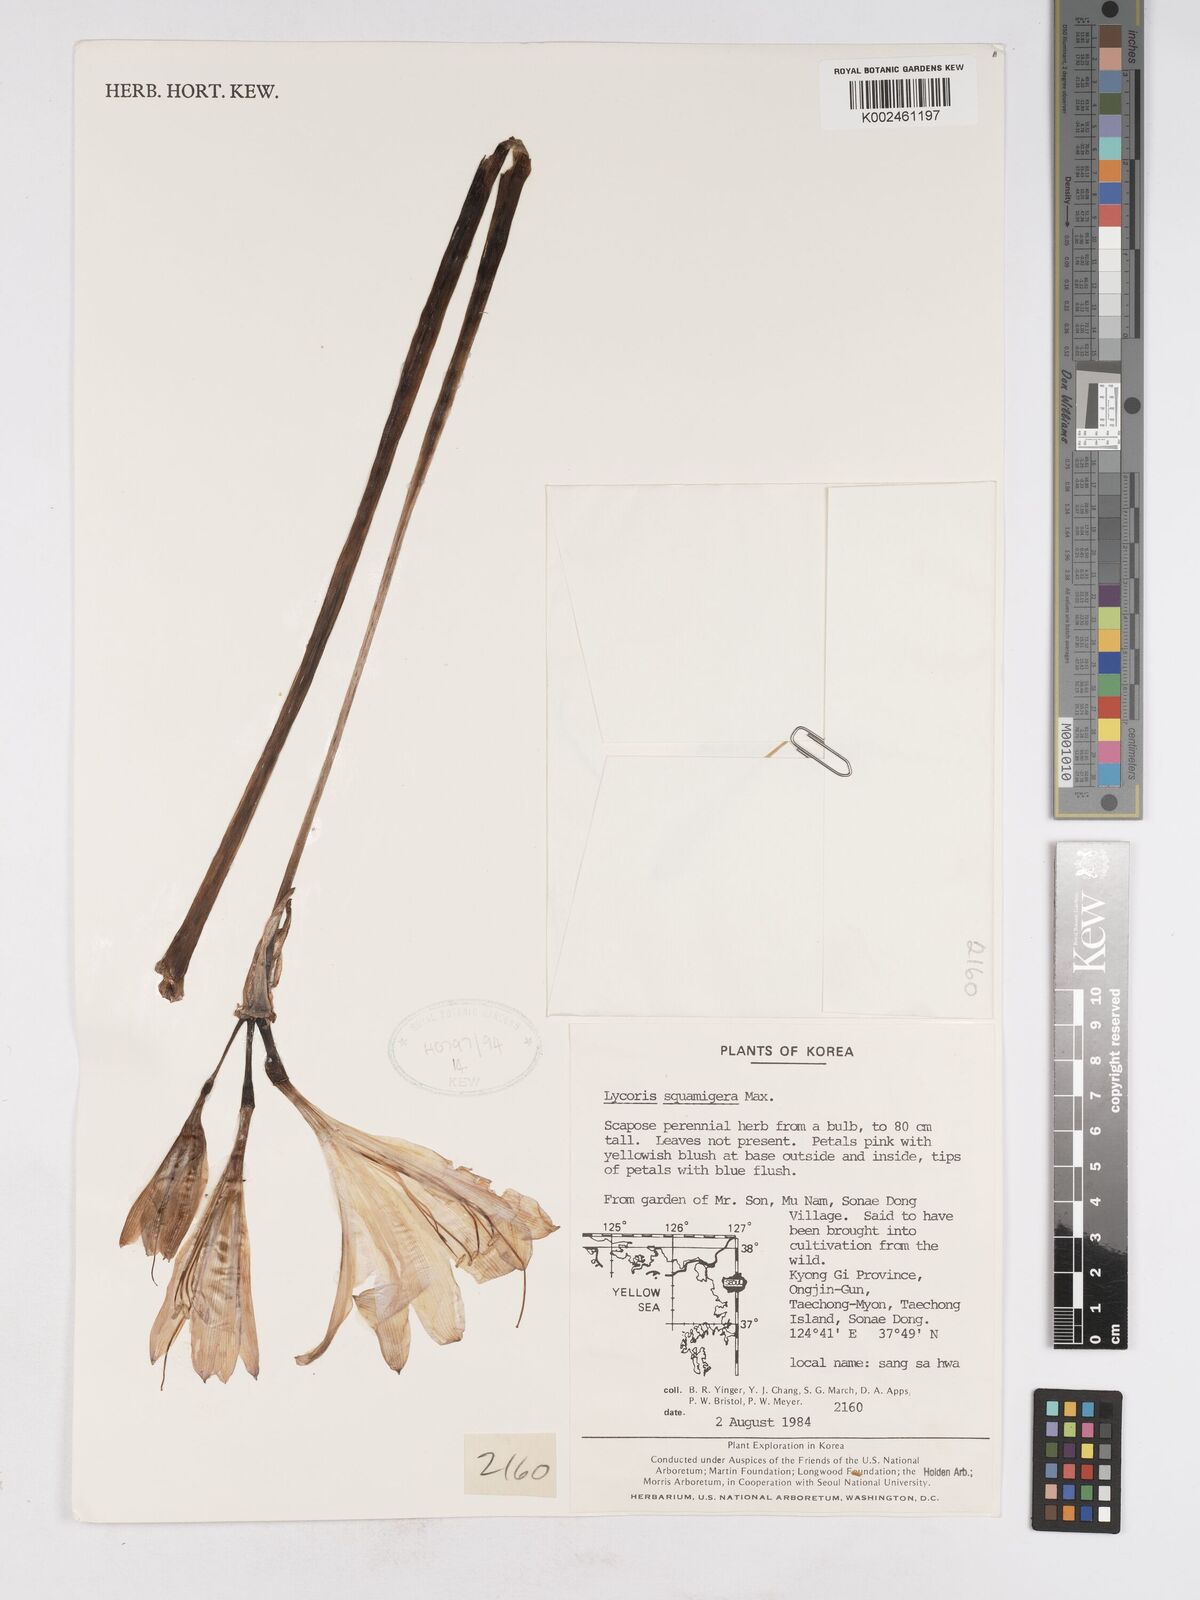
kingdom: Plantae
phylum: Tracheophyta
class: Liliopsida
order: Asparagales
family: Amaryllidaceae
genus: Lycoris
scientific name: Lycoris squamigera
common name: Magic-lily
